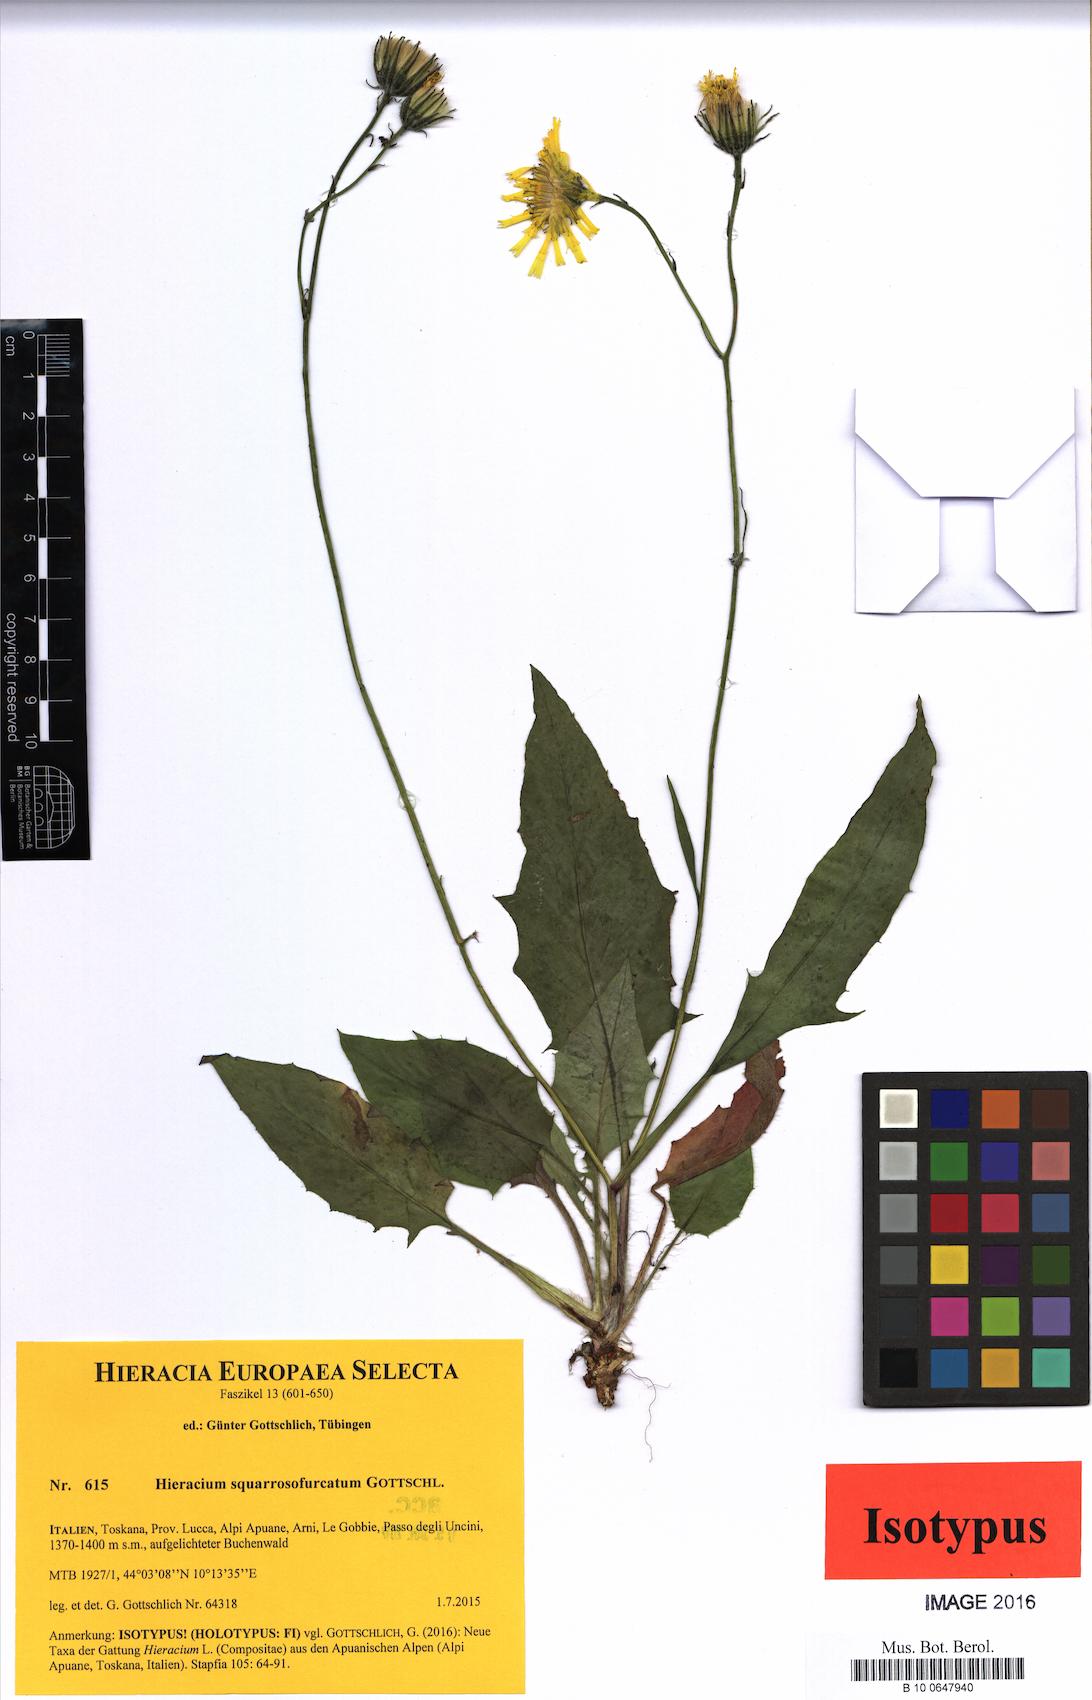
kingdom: Plantae
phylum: Tracheophyta
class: Magnoliopsida
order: Asterales
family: Asteraceae
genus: Hieracium
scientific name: Hieracium squarrosofurcatum
